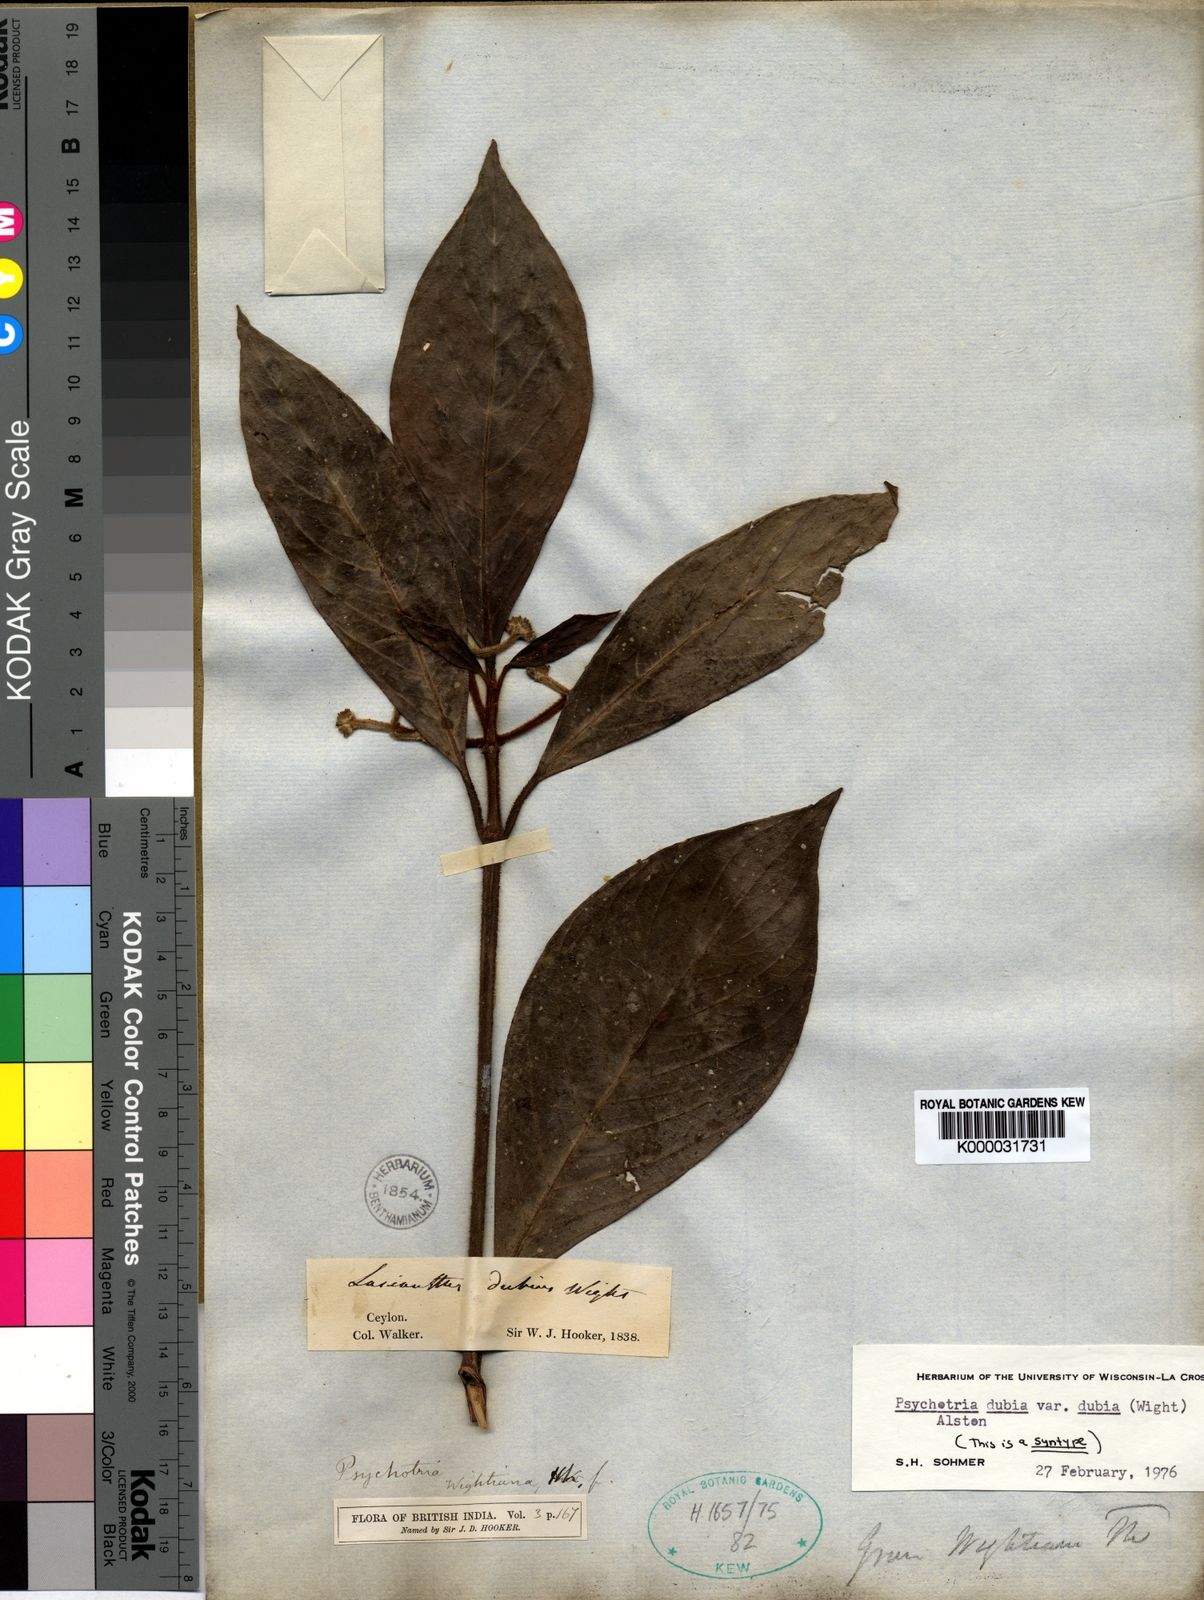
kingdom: Plantae
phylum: Tracheophyta
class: Magnoliopsida
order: Gentianales
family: Rubiaceae
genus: Psychotria
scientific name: Psychotria dubia
